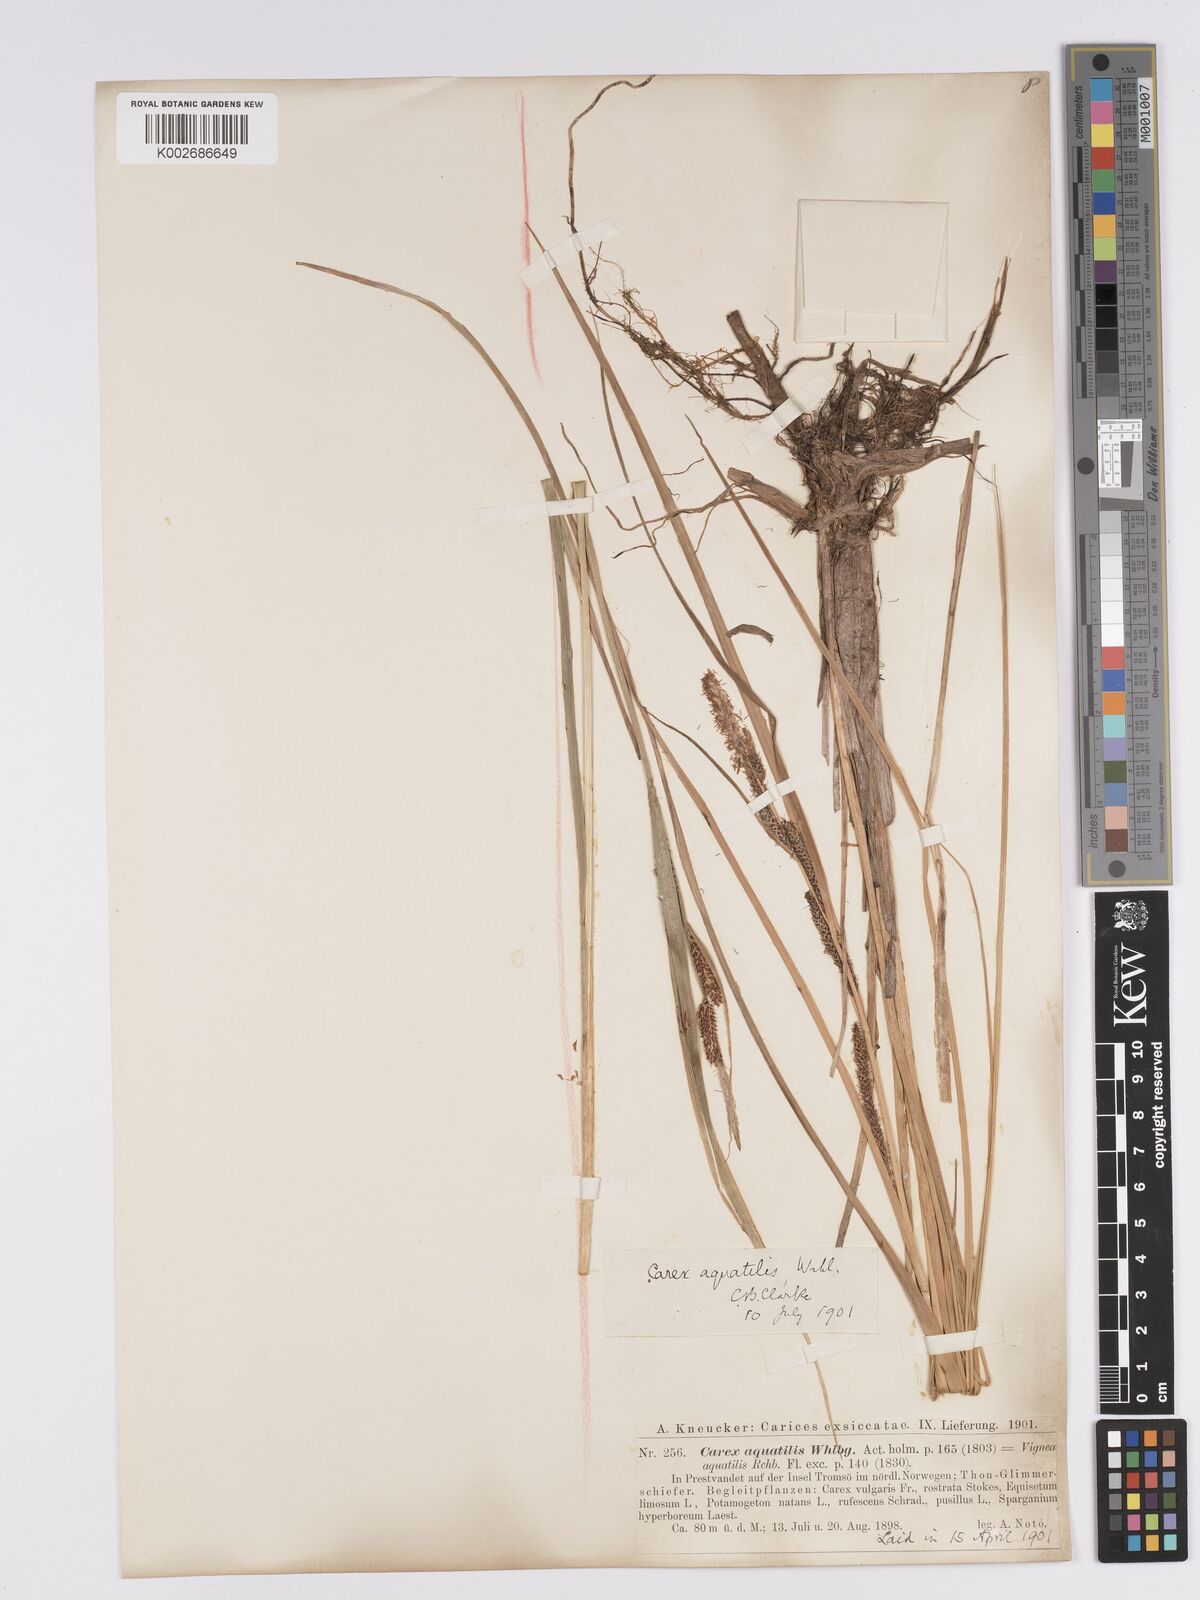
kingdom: Plantae
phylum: Tracheophyta
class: Liliopsida
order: Poales
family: Cyperaceae
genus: Carex
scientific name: Carex aquatilis
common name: Water sedge
